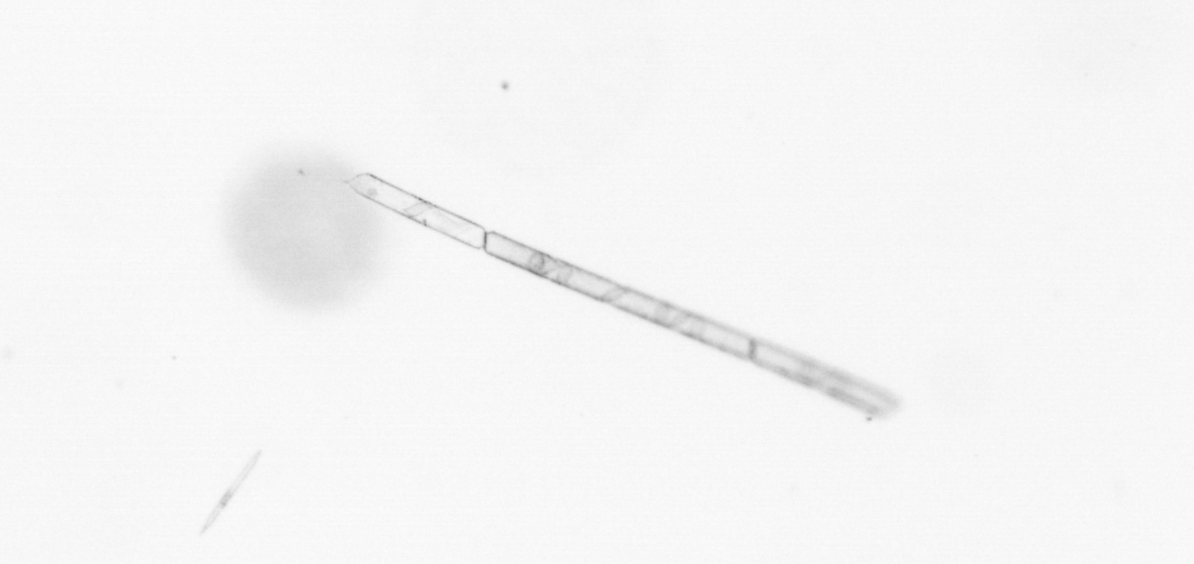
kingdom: Chromista
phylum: Ochrophyta
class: Bacillariophyceae
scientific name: Bacillariophyceae
